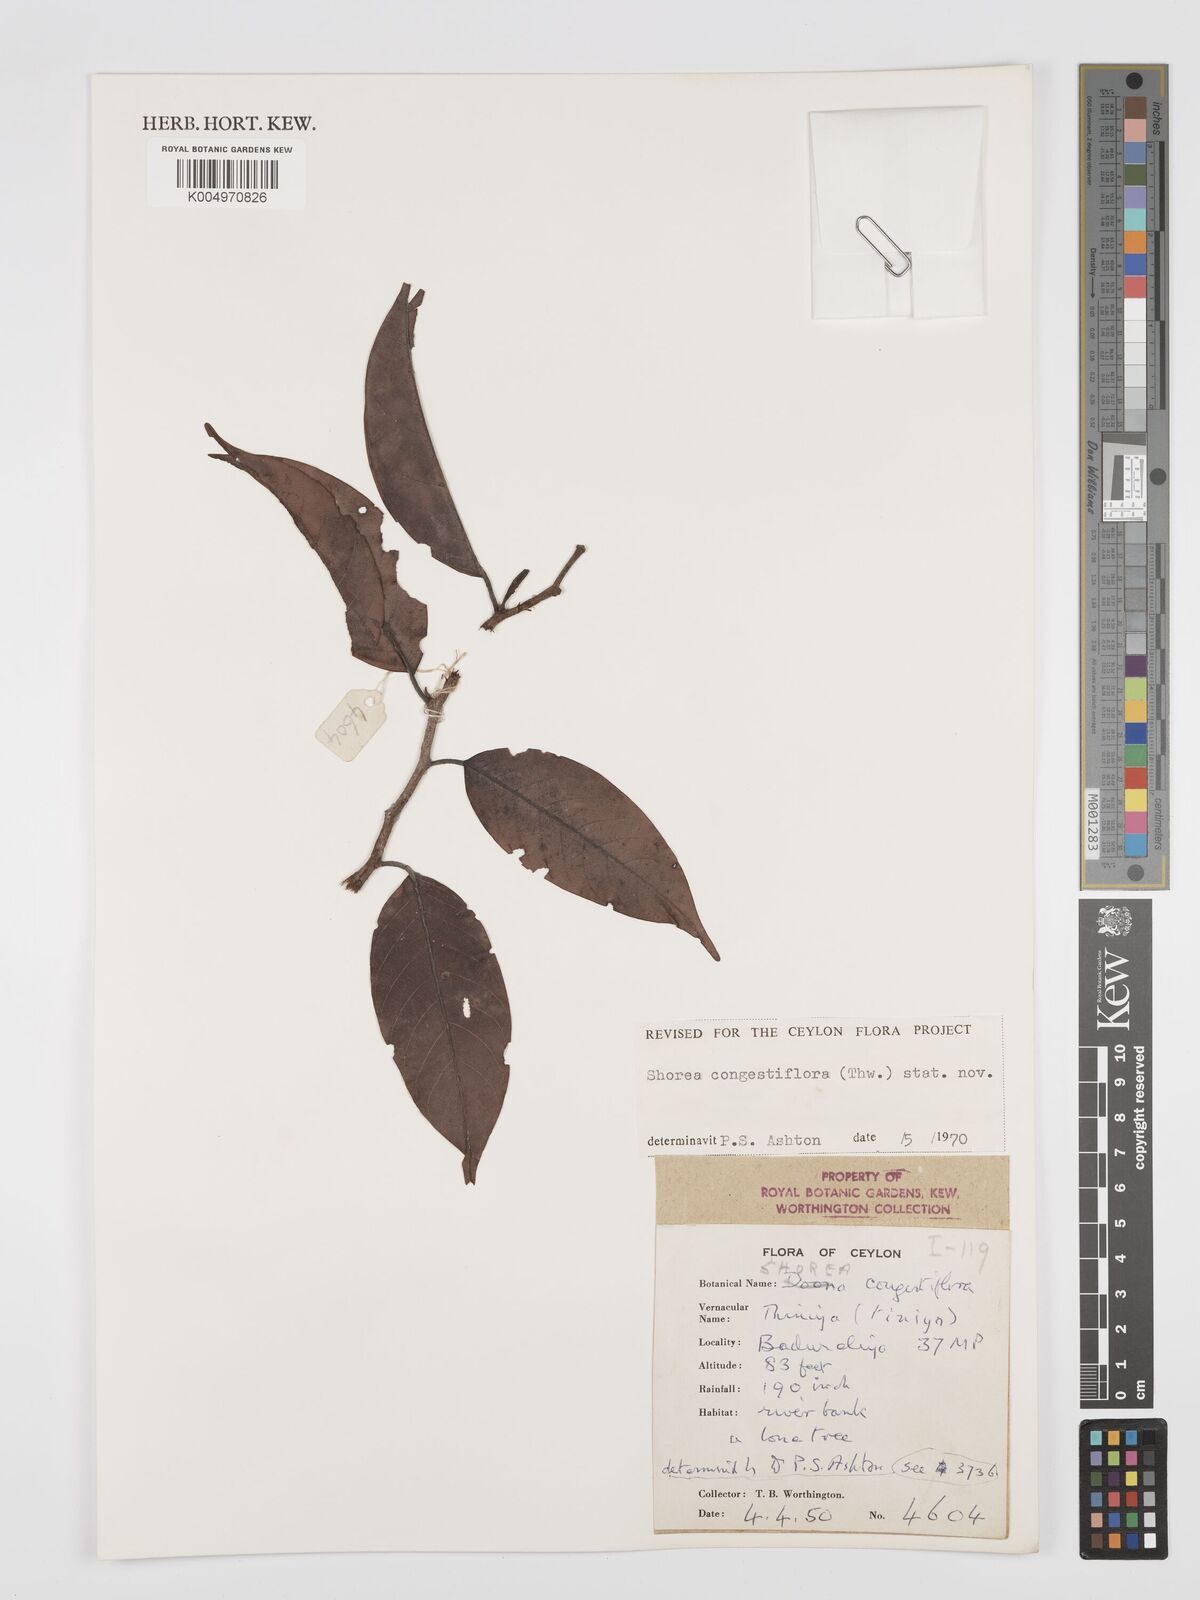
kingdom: Plantae
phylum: Tracheophyta
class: Magnoliopsida
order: Malvales
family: Dipterocarpaceae
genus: Doona
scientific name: Doona congestiflora
